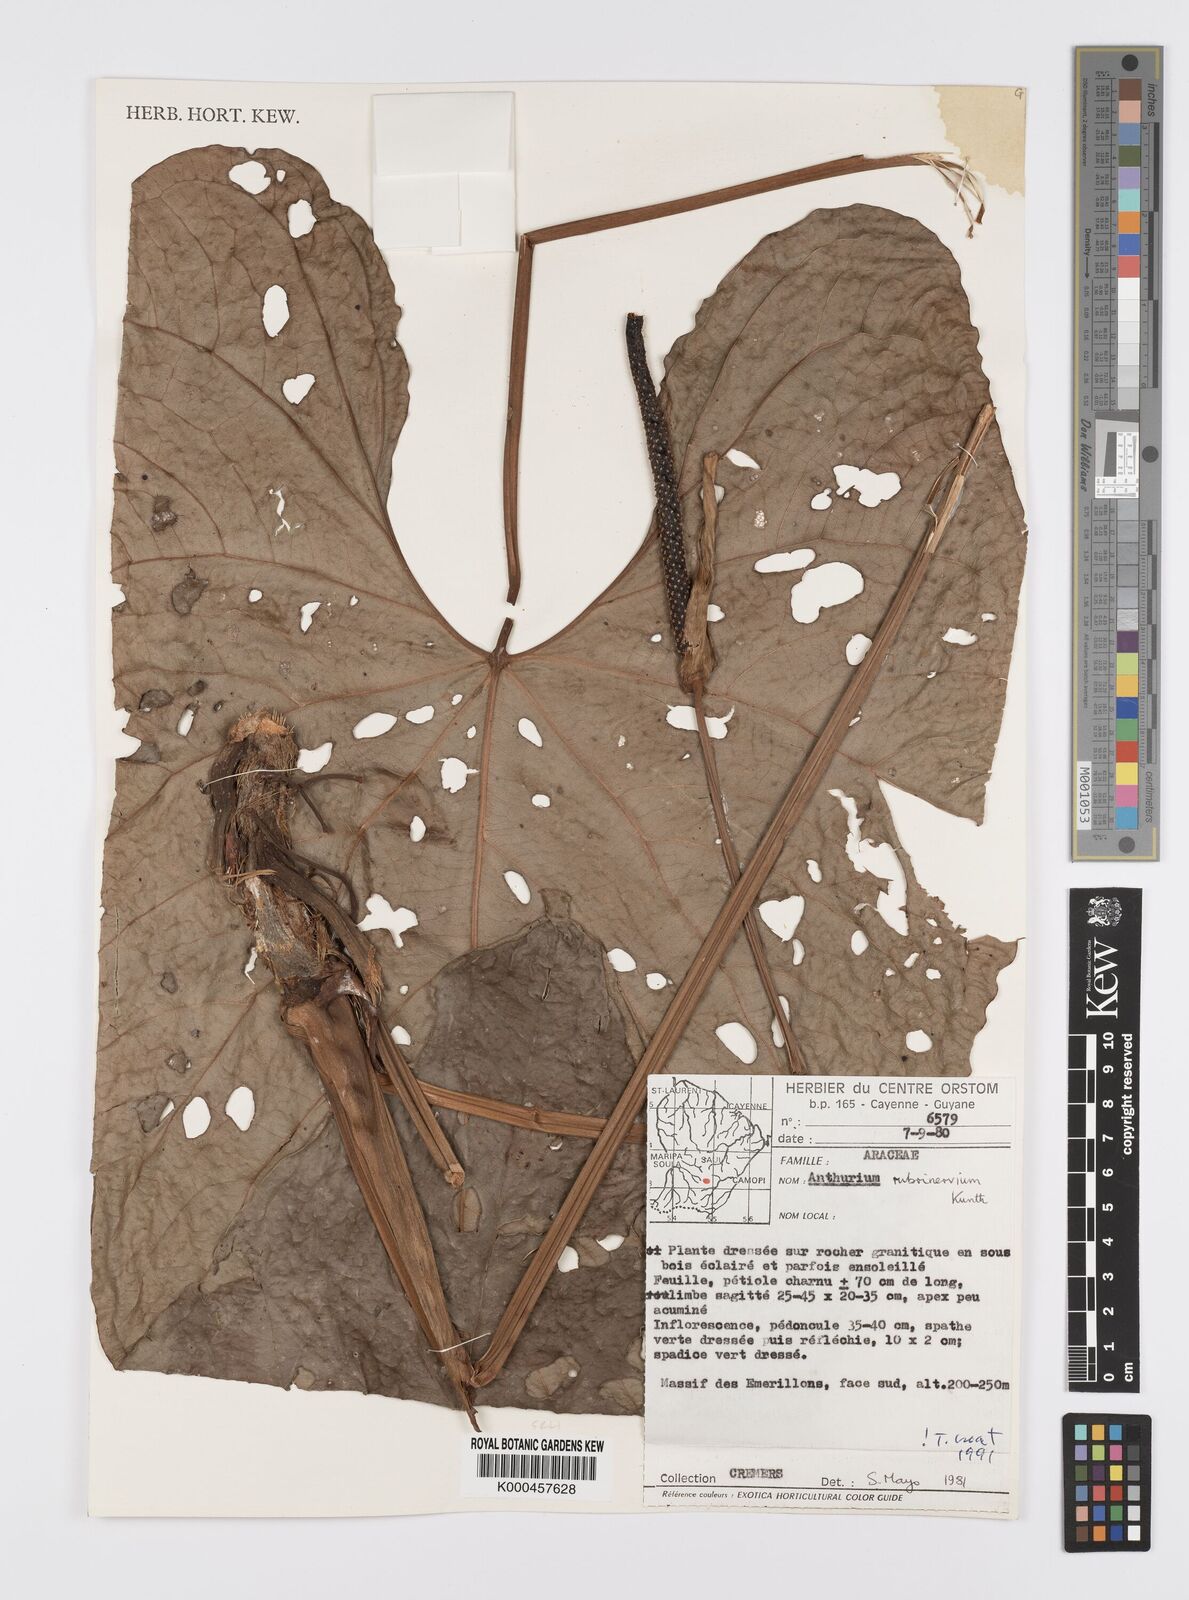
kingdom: Plantae
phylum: Tracheophyta
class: Liliopsida
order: Alismatales
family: Araceae
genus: Anthurium
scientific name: Anthurium sagittatum
